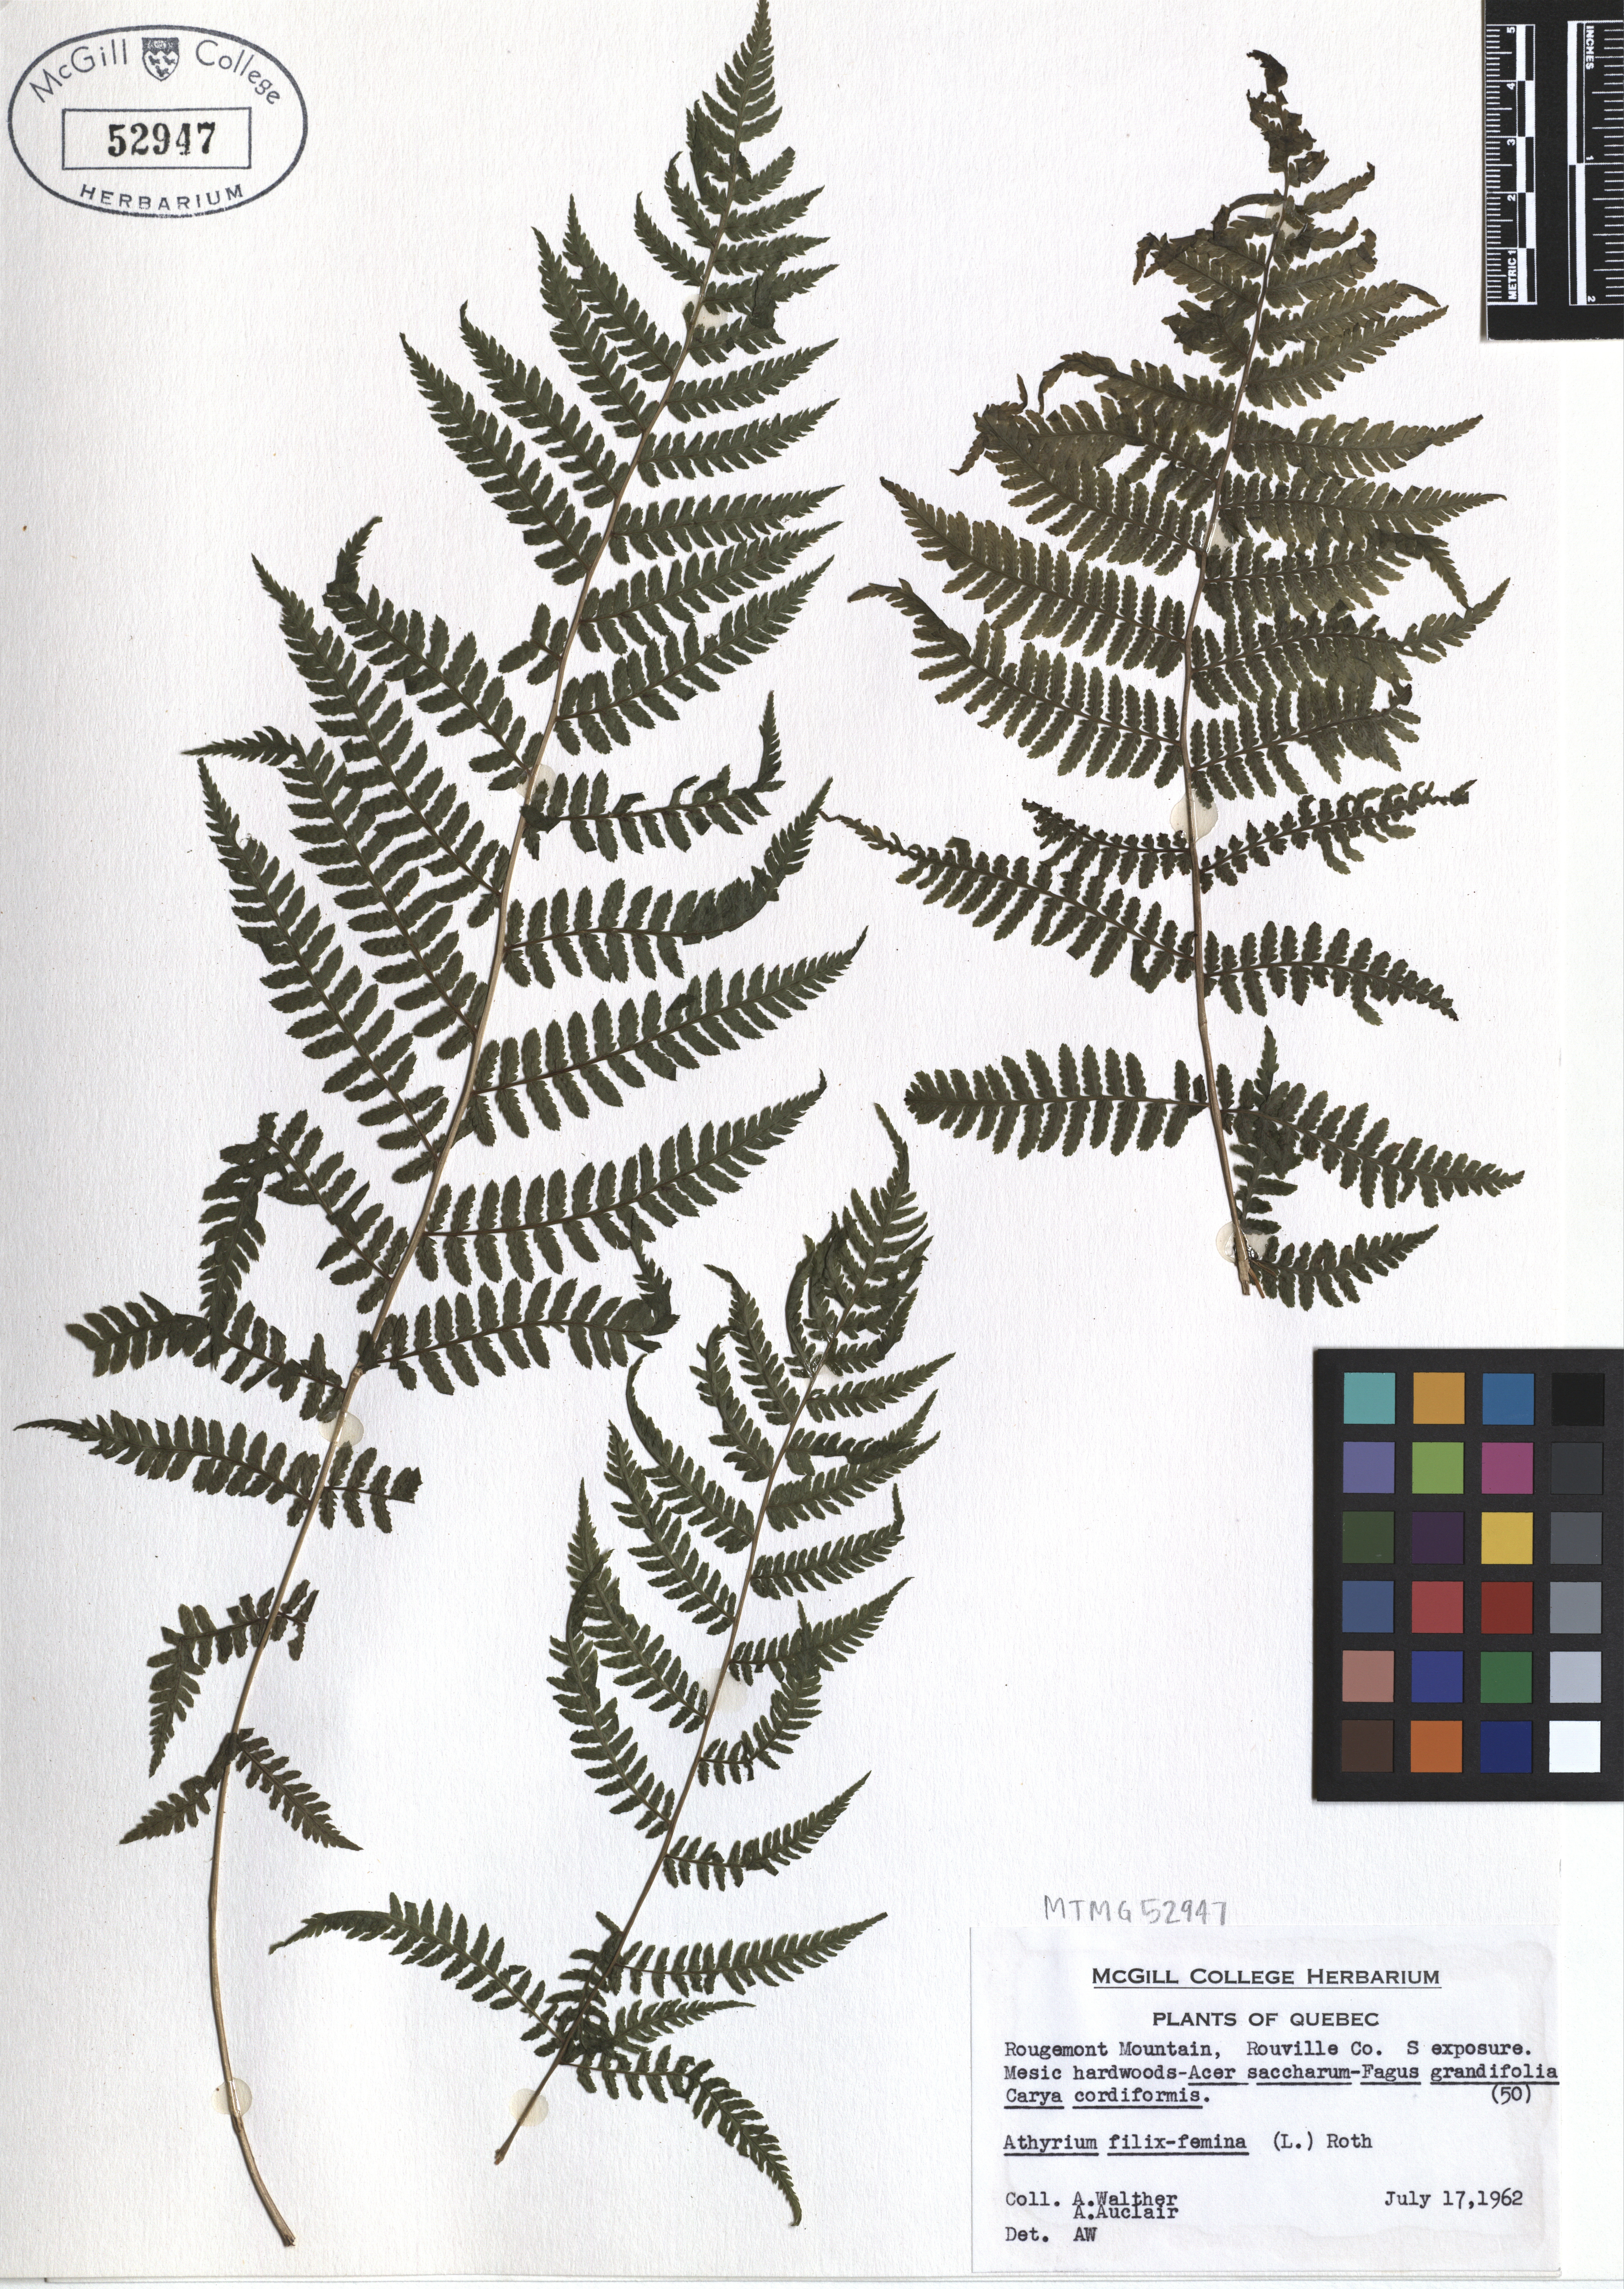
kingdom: Plantae
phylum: Tracheophyta
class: Polypodiopsida
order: Polypodiales
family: Athyriaceae
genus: Athyrium
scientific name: Athyrium filix-femina
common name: Lady fern
